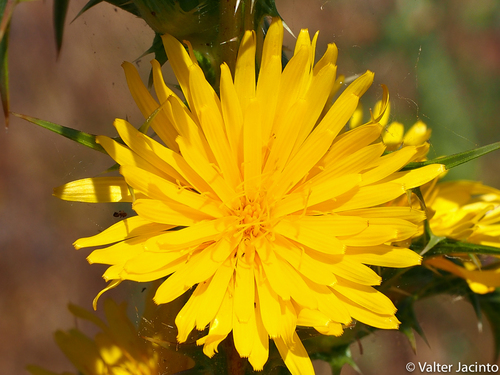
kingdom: Plantae
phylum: Tracheophyta
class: Magnoliopsida
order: Asterales
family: Asteraceae
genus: Scolymus
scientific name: Scolymus hispanicus
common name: Golden thistle
